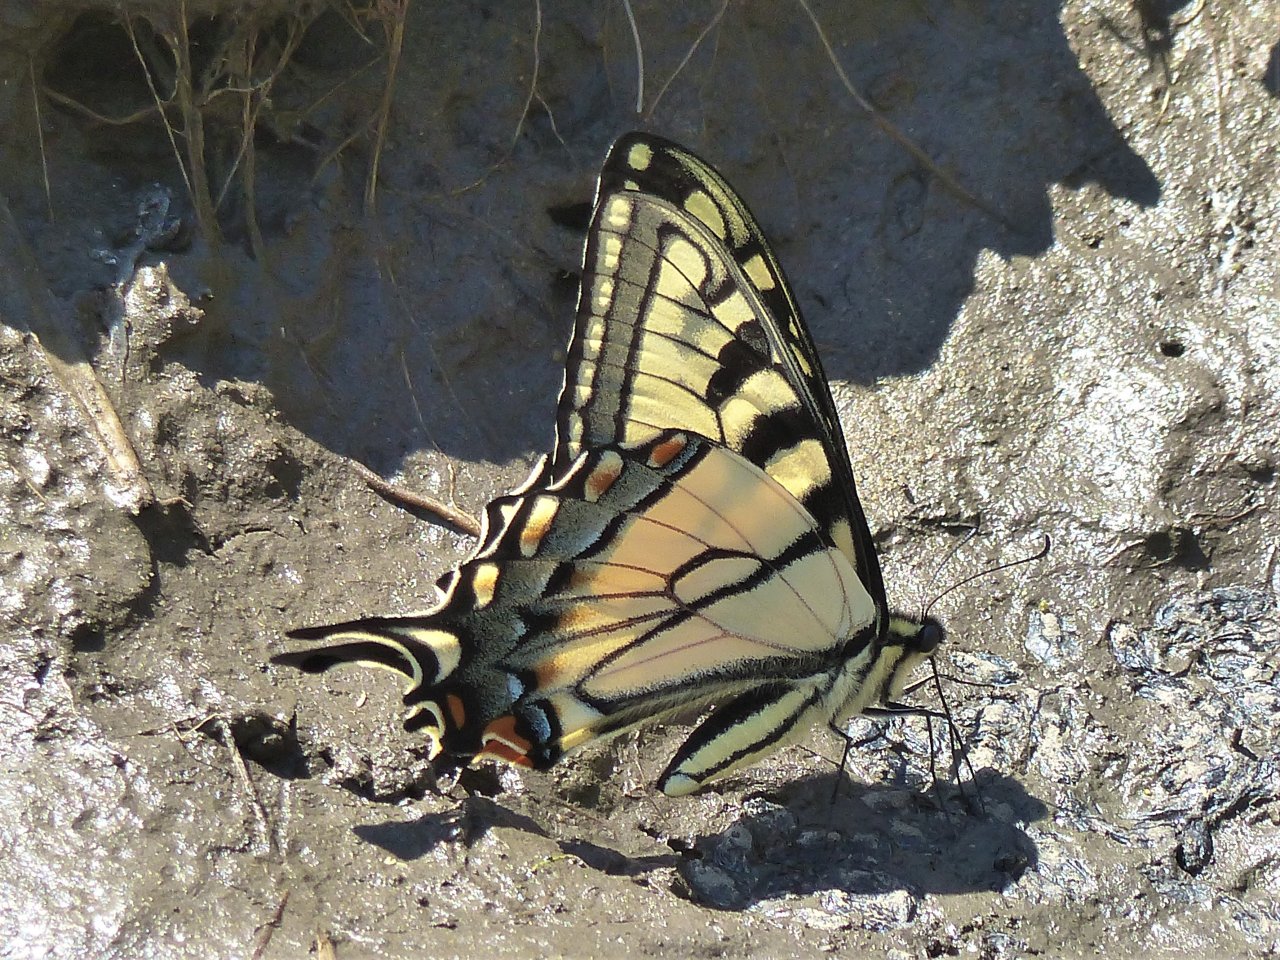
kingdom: Animalia
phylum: Arthropoda
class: Insecta
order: Lepidoptera
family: Papilionidae
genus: Pterourus
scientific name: Pterourus glaucus
